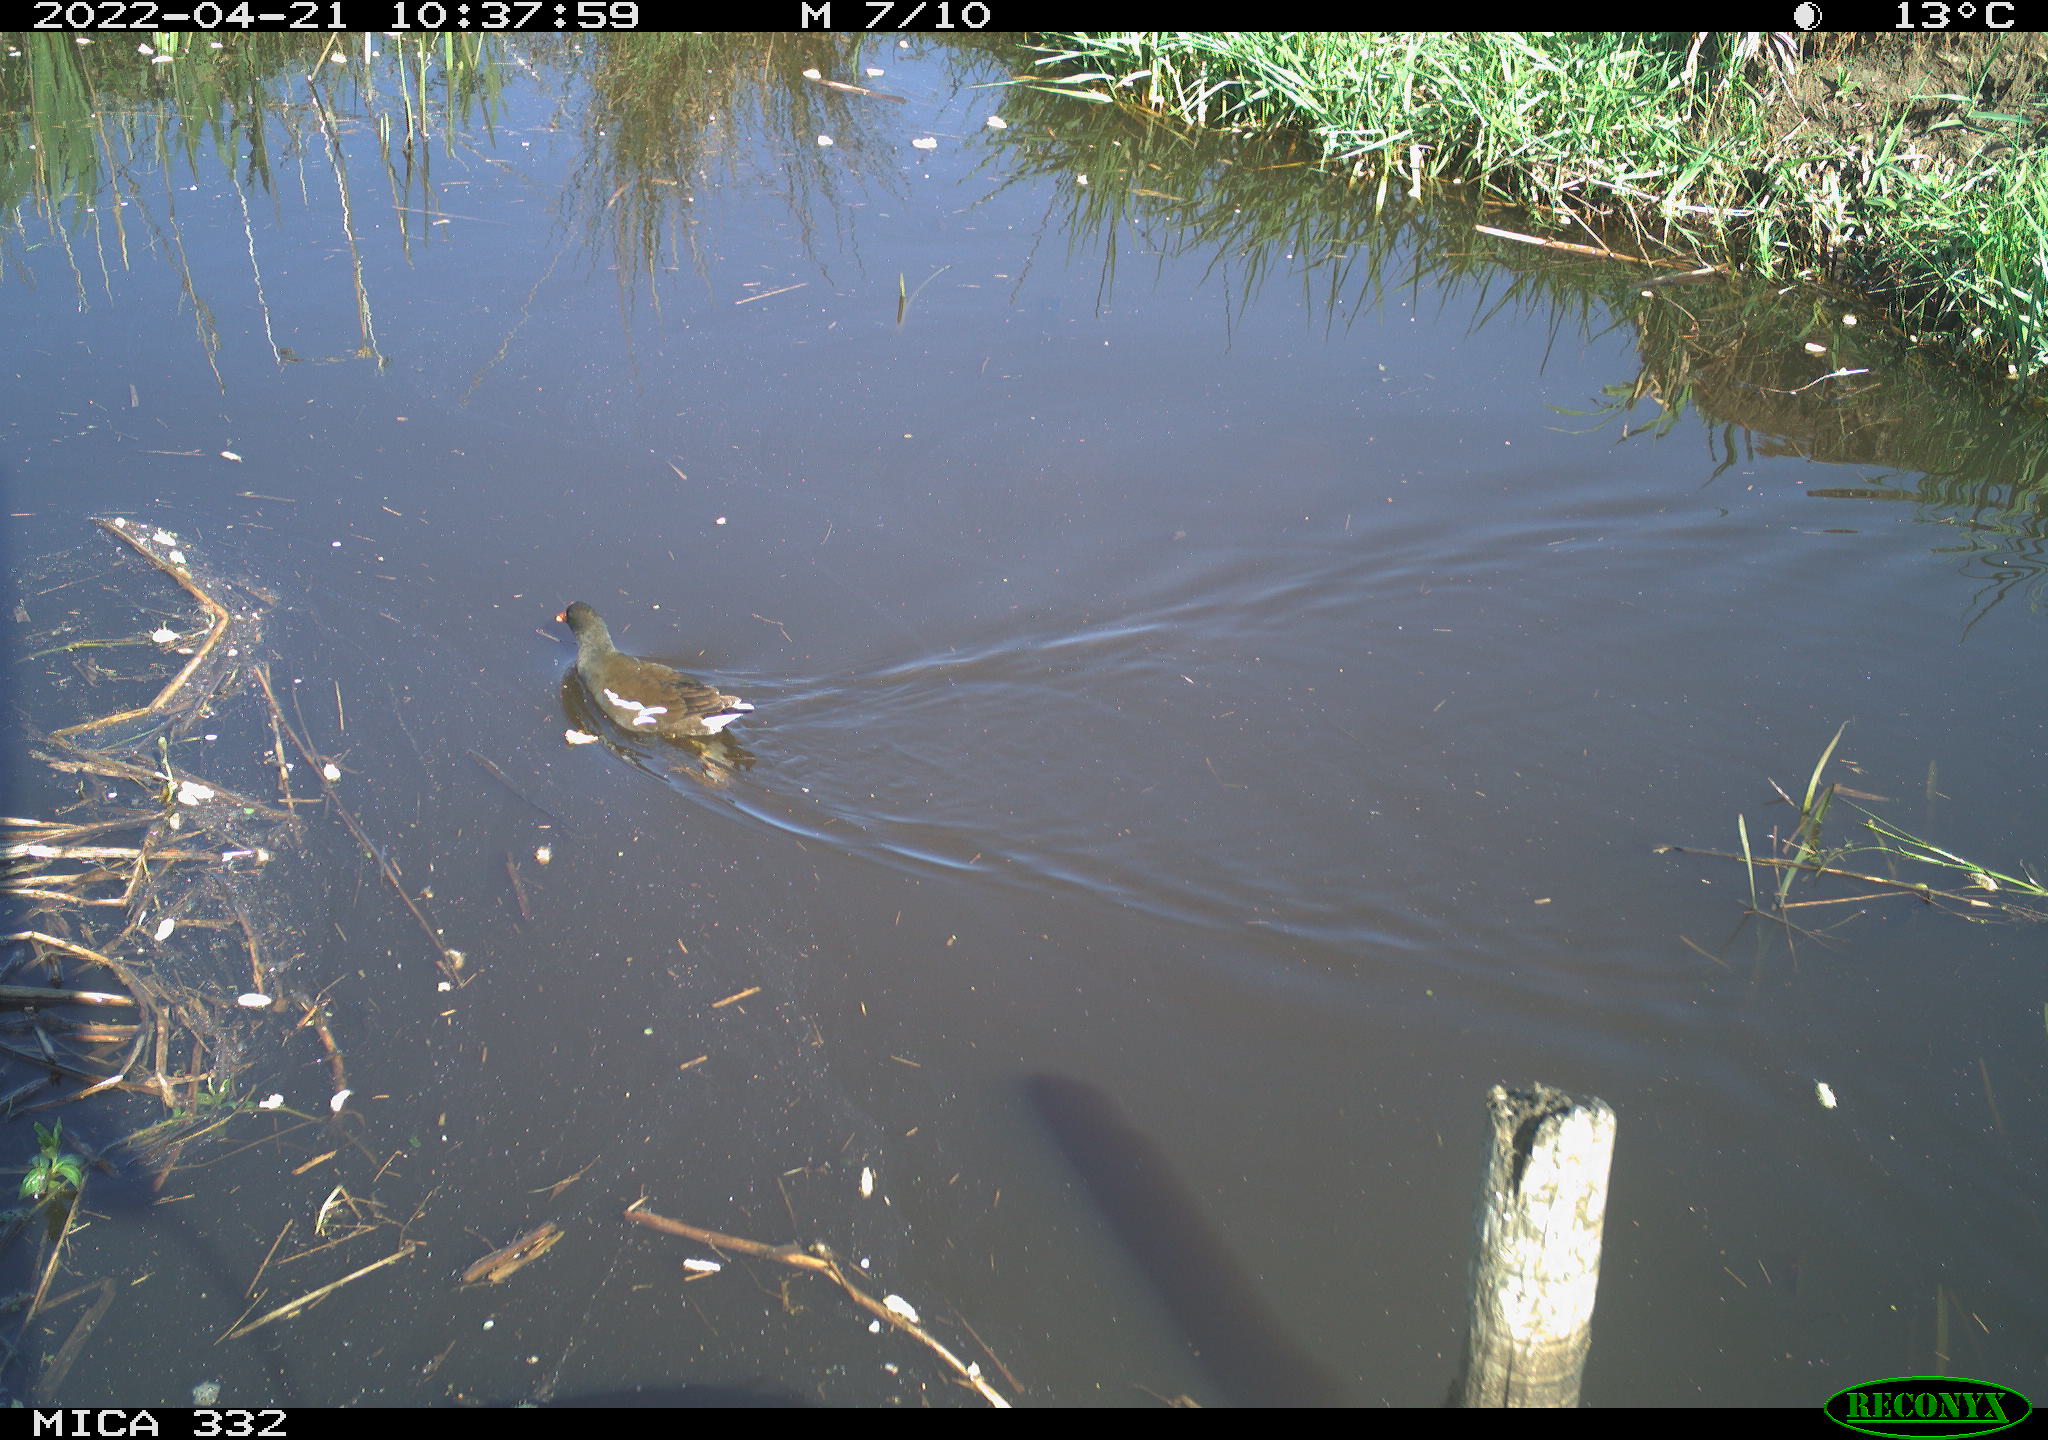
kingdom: Animalia
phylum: Chordata
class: Aves
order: Gruiformes
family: Rallidae
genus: Gallinula
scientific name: Gallinula chloropus
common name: Common moorhen
